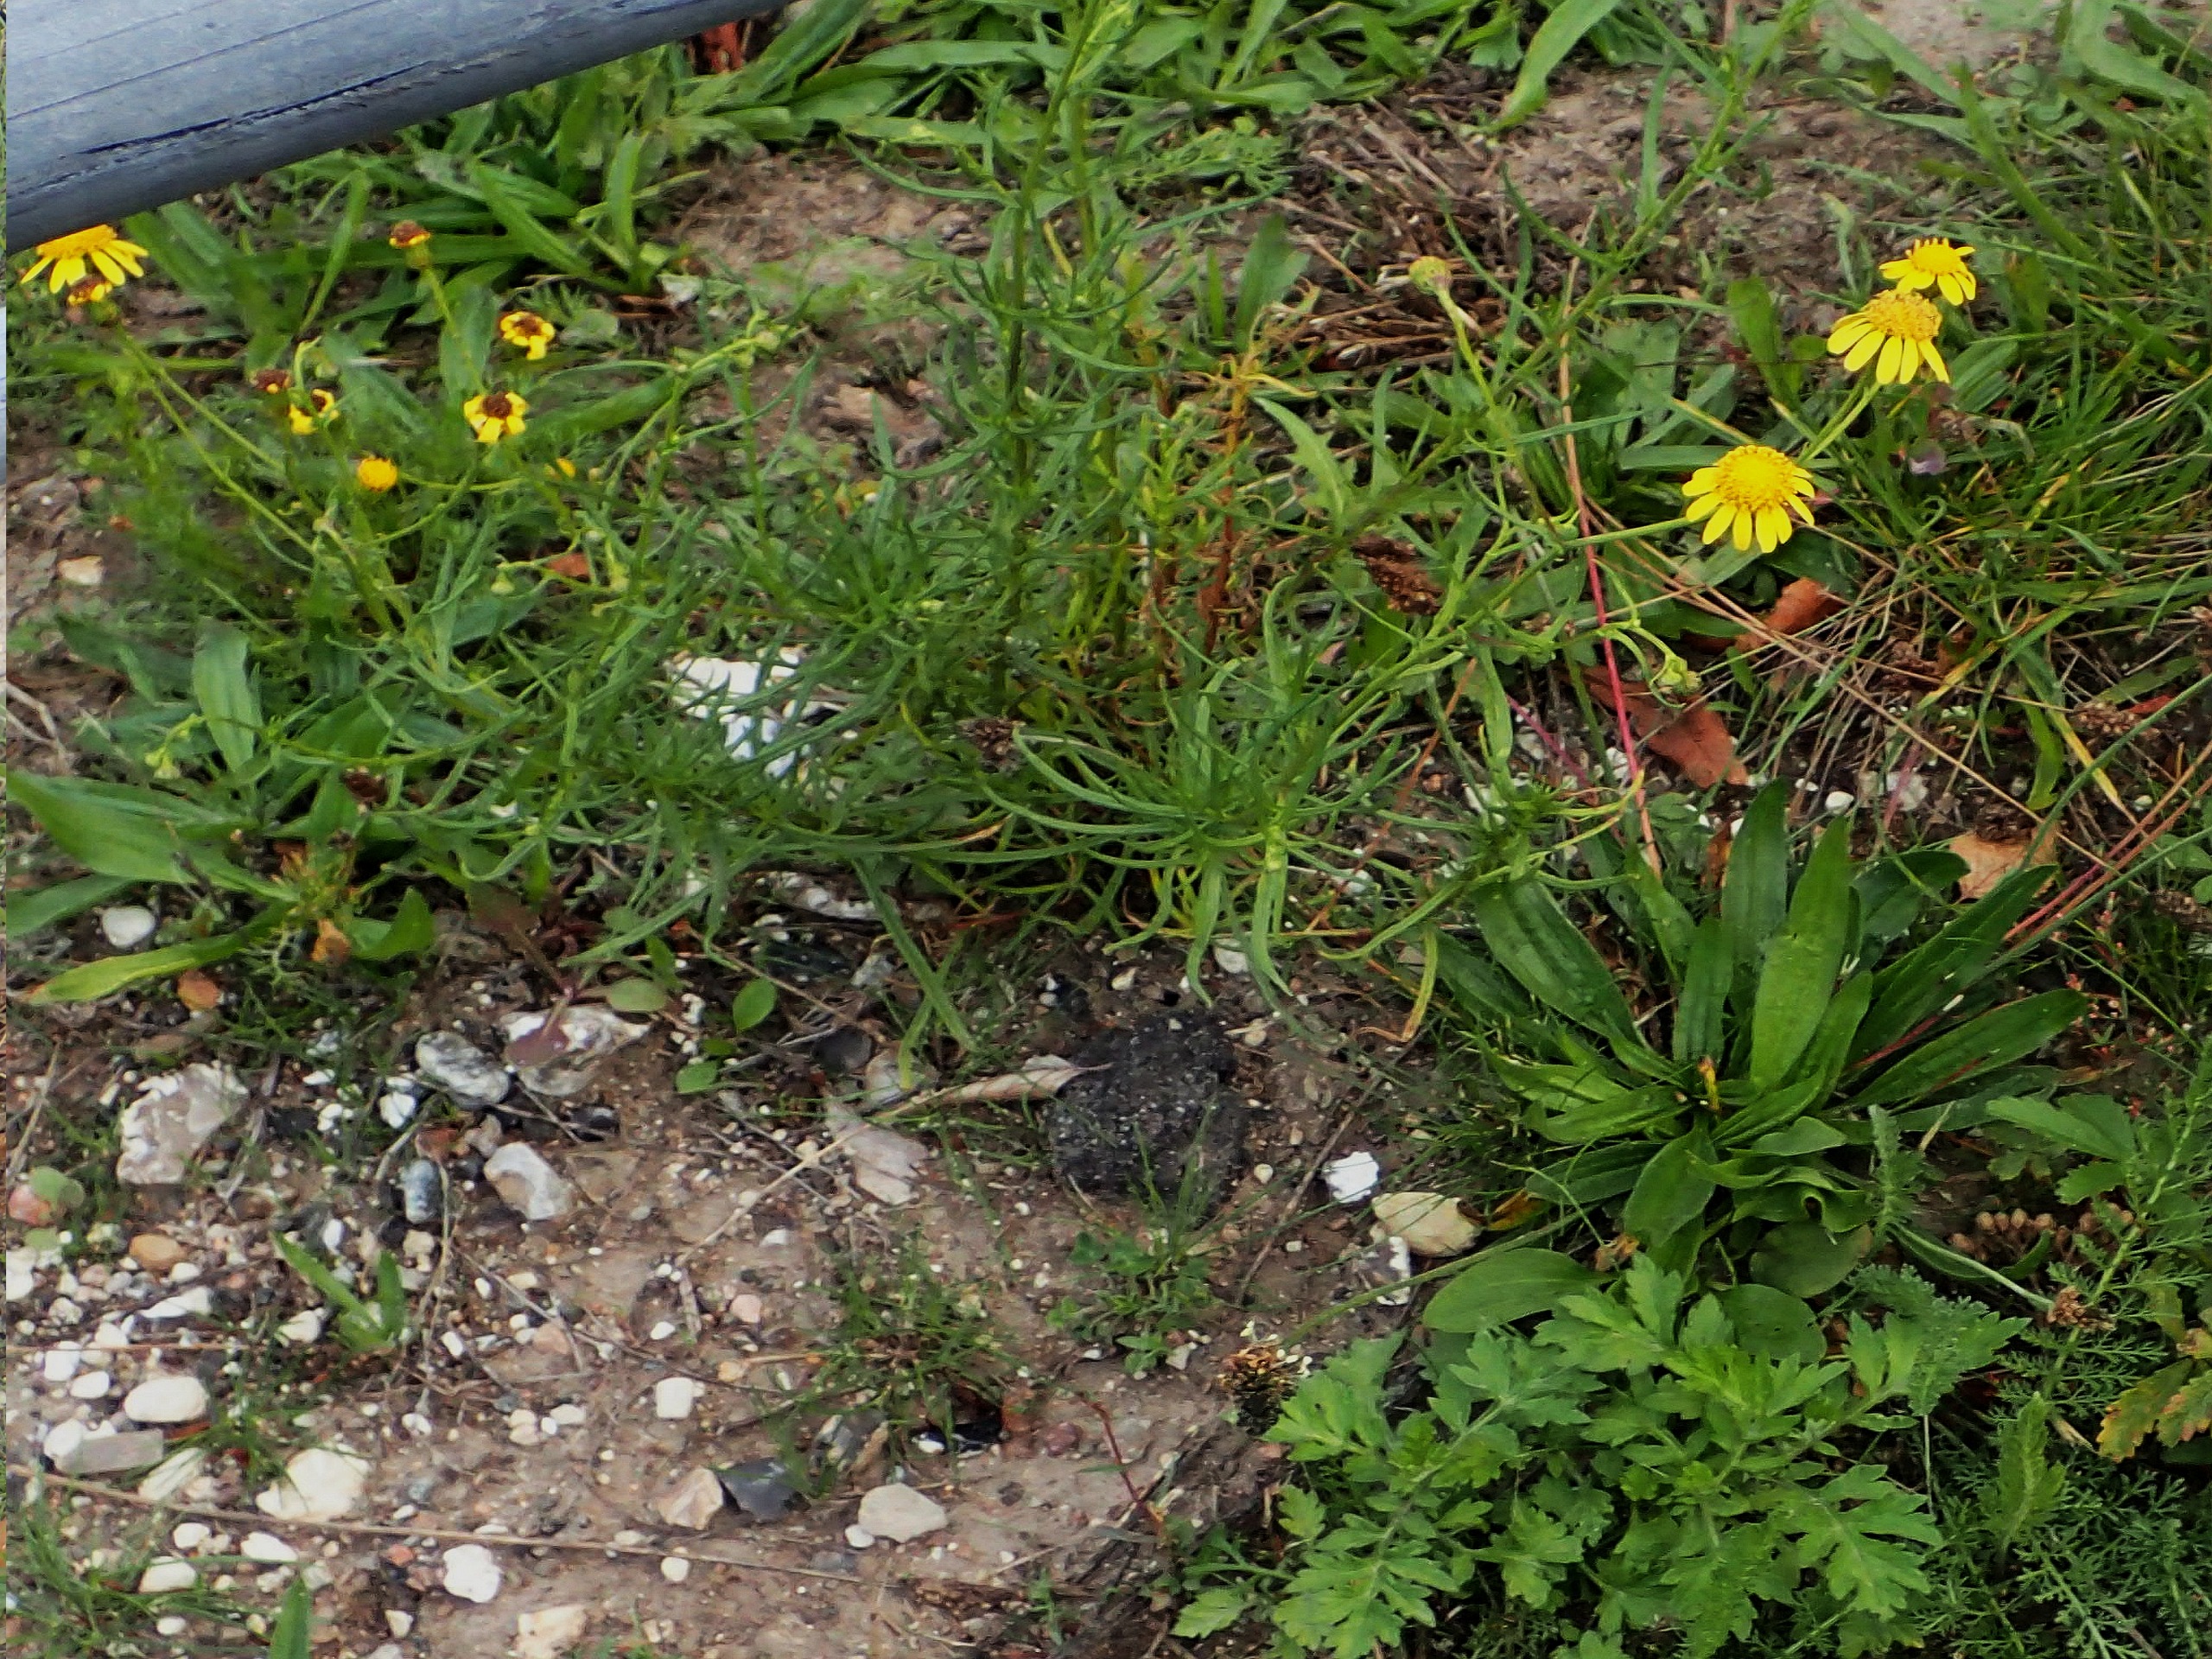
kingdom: Plantae
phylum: Tracheophyta
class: Magnoliopsida
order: Asterales
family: Asteraceae
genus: Senecio
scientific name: Senecio inaequidens
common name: Smalbladet brandbæger
